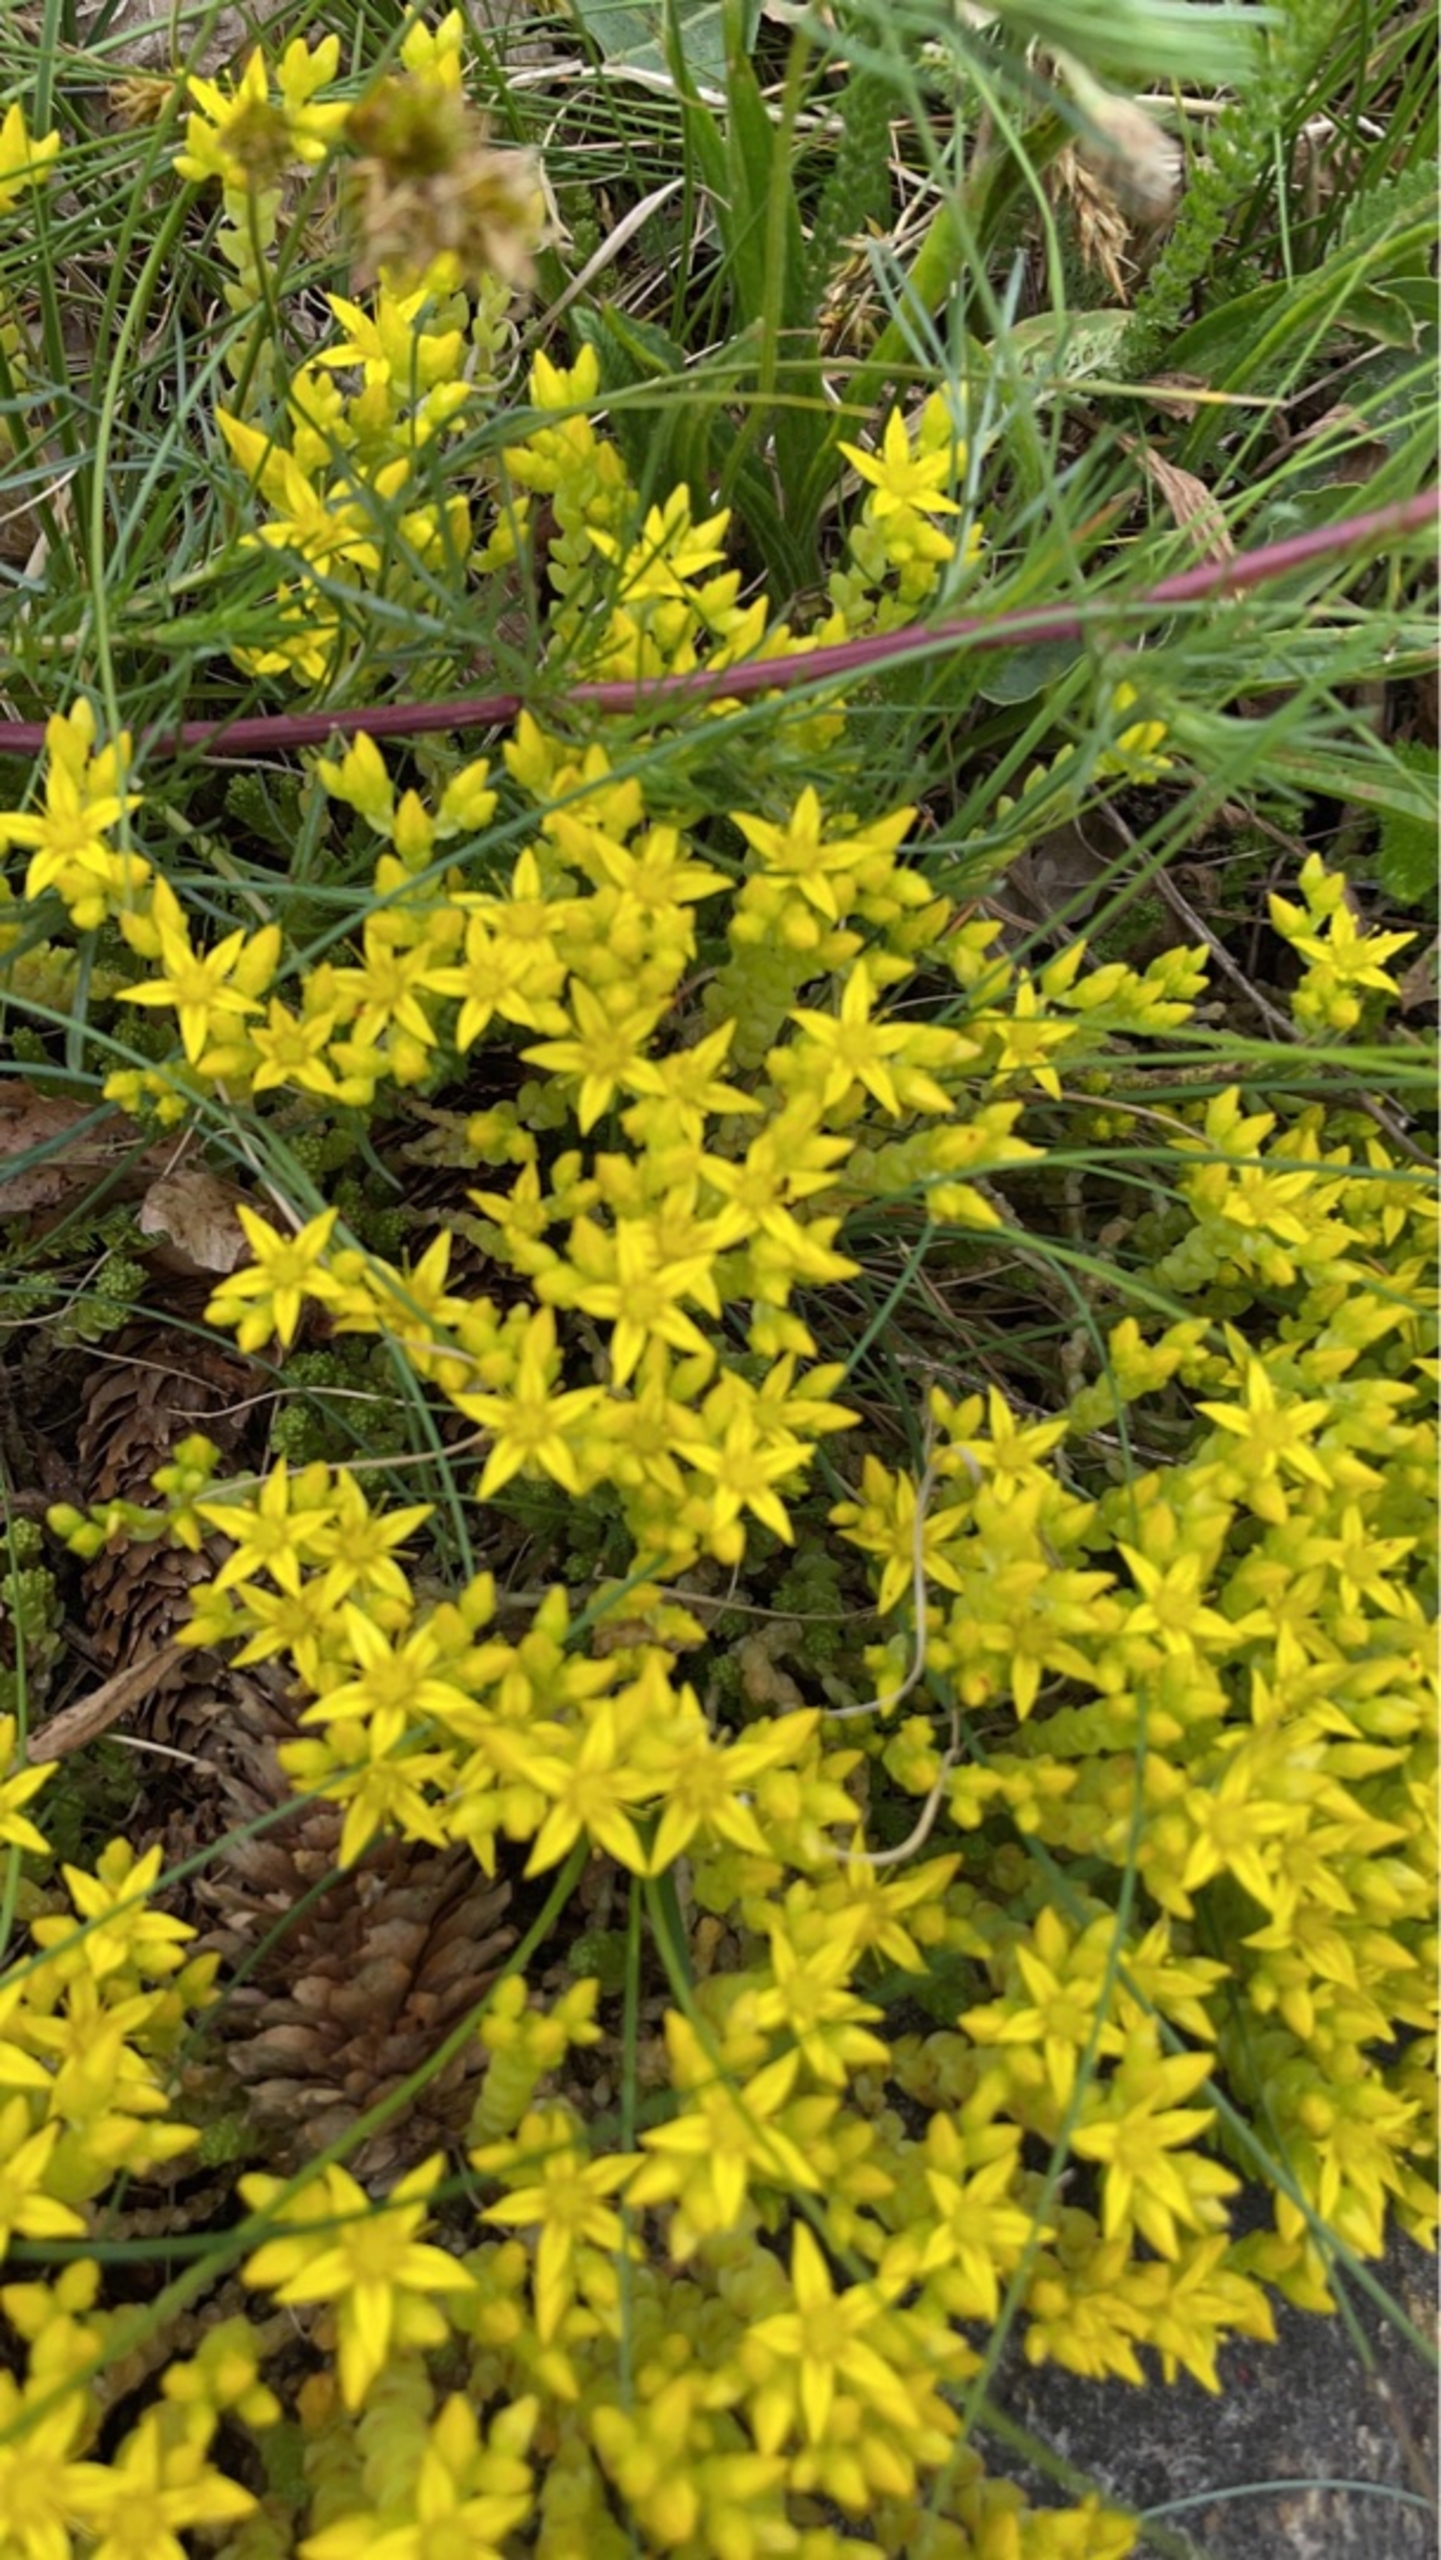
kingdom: Plantae
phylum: Tracheophyta
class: Magnoliopsida
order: Saxifragales
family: Crassulaceae
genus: Sedum
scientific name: Sedum acre
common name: Bidende stenurt
